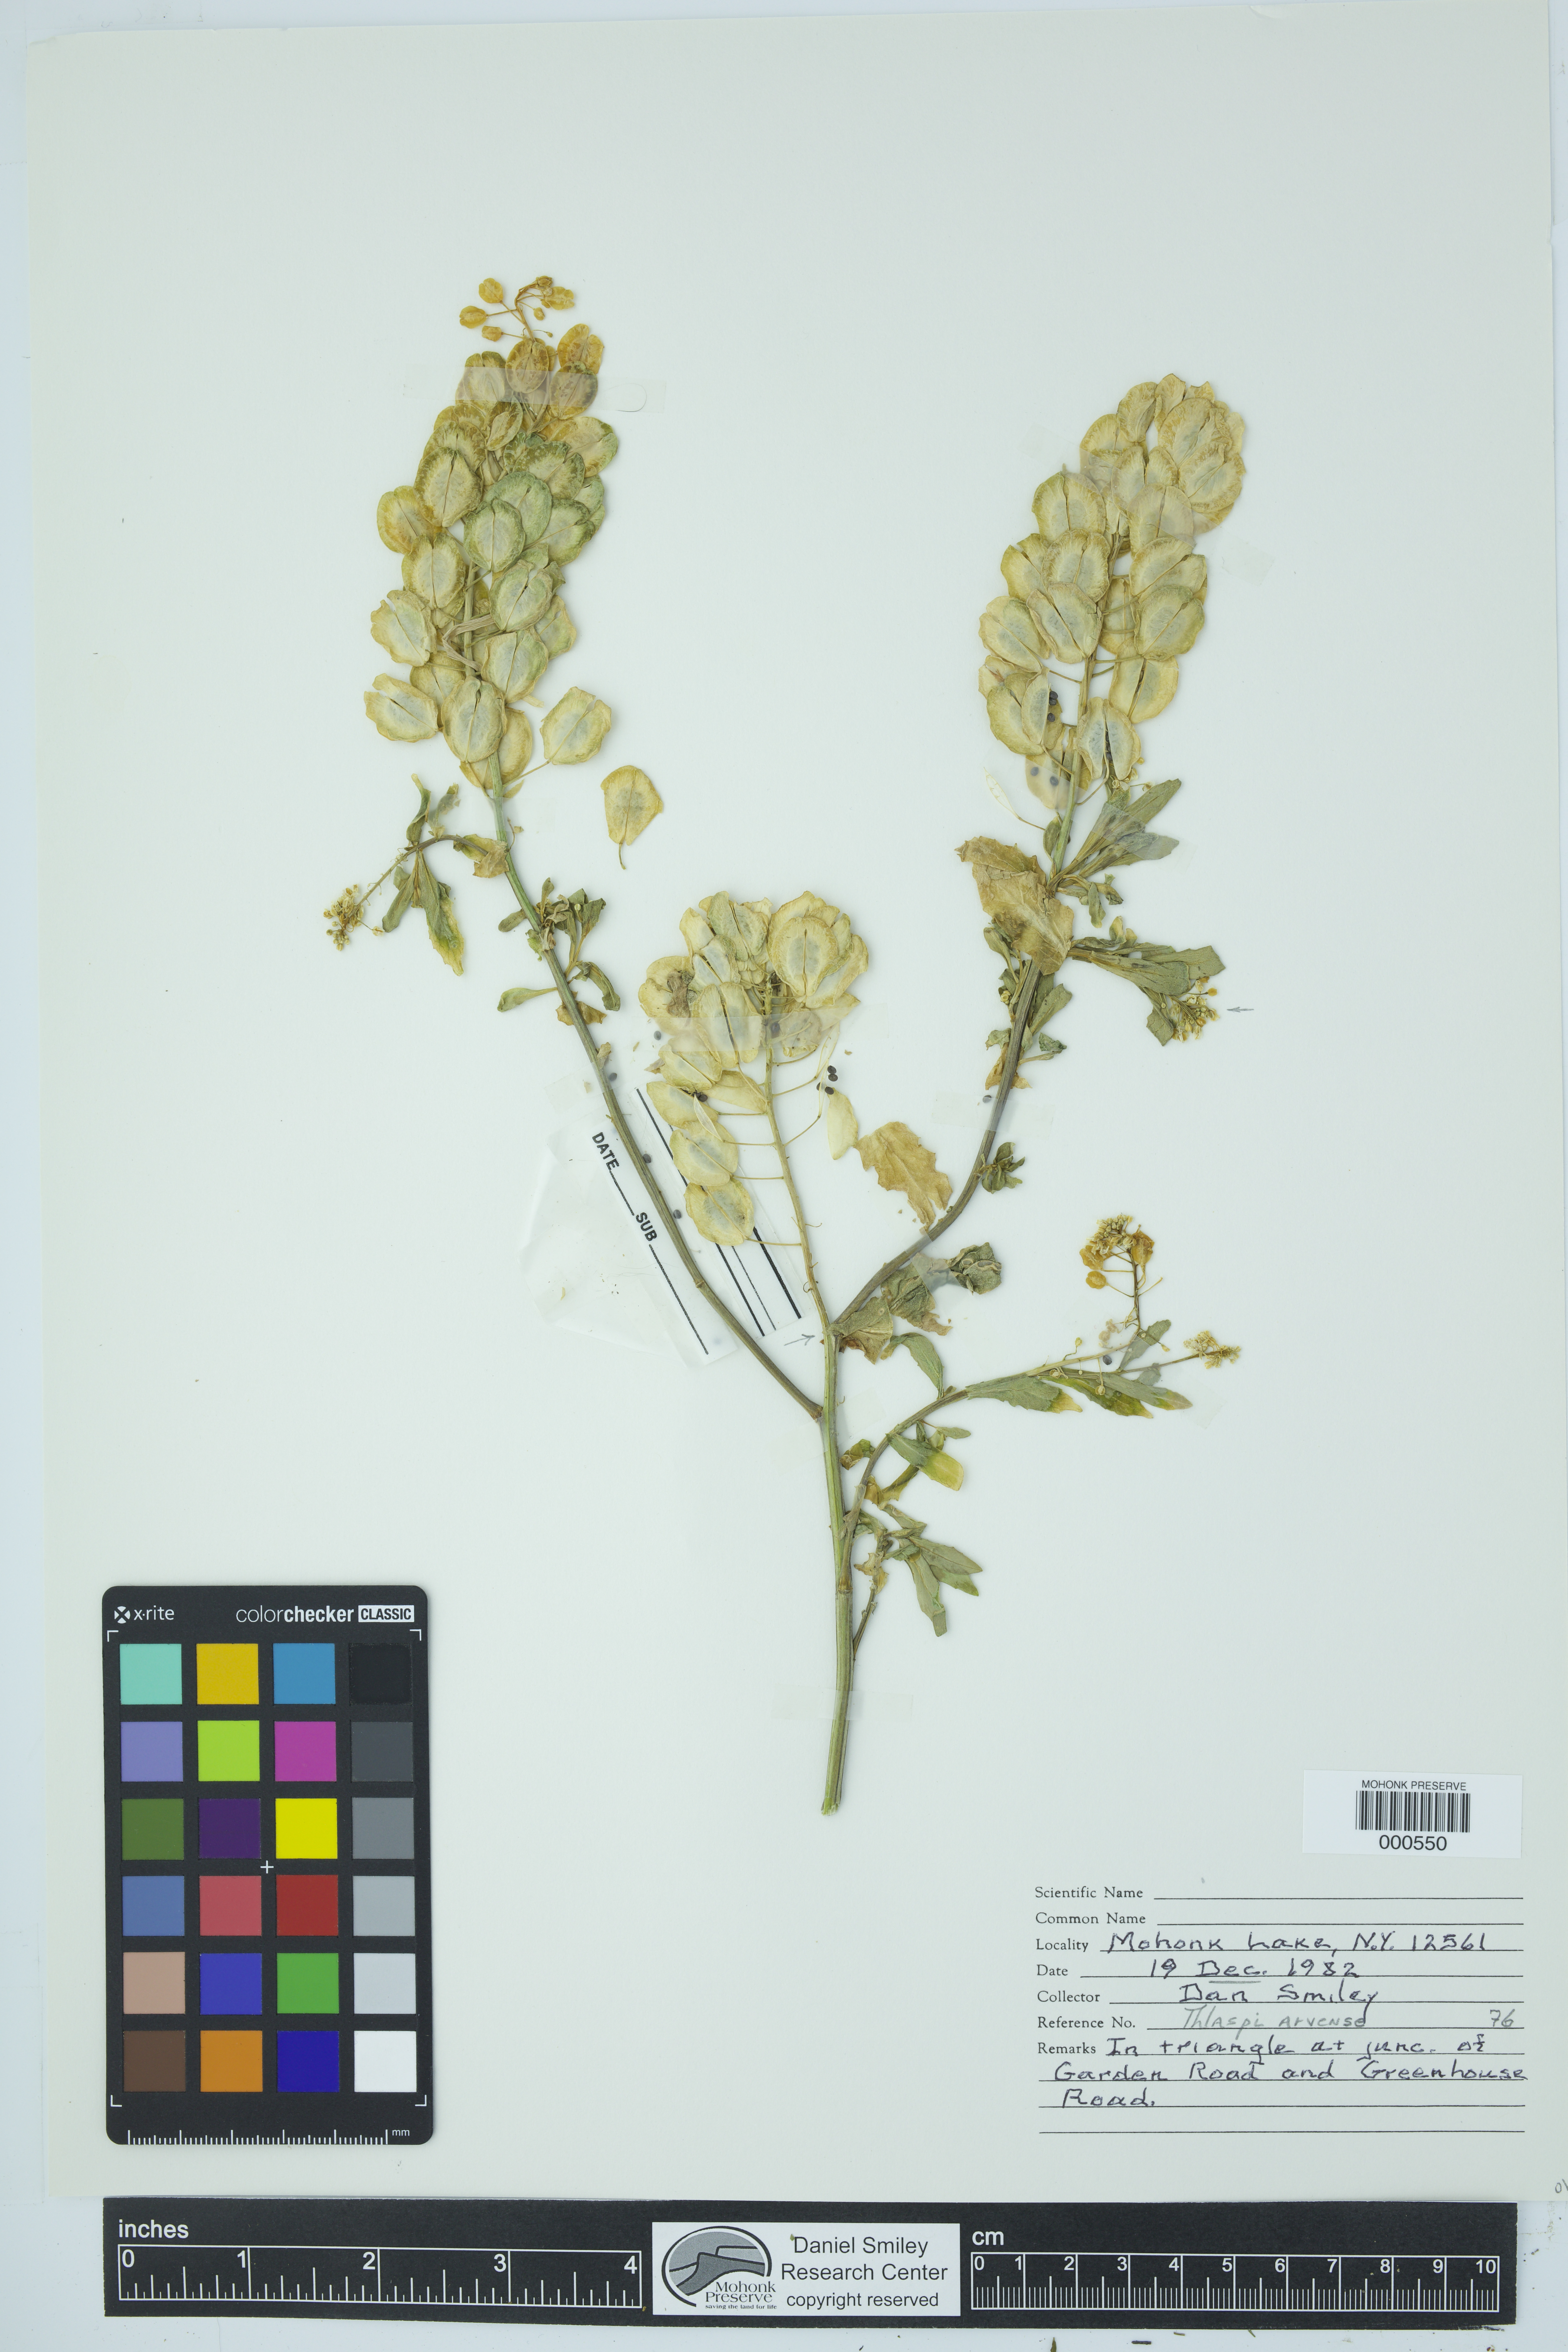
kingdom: Plantae
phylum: Tracheophyta
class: Magnoliopsida
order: Brassicales
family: Brassicaceae
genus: Thlaspi
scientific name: Thlaspi arvense
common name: Field pennycress
